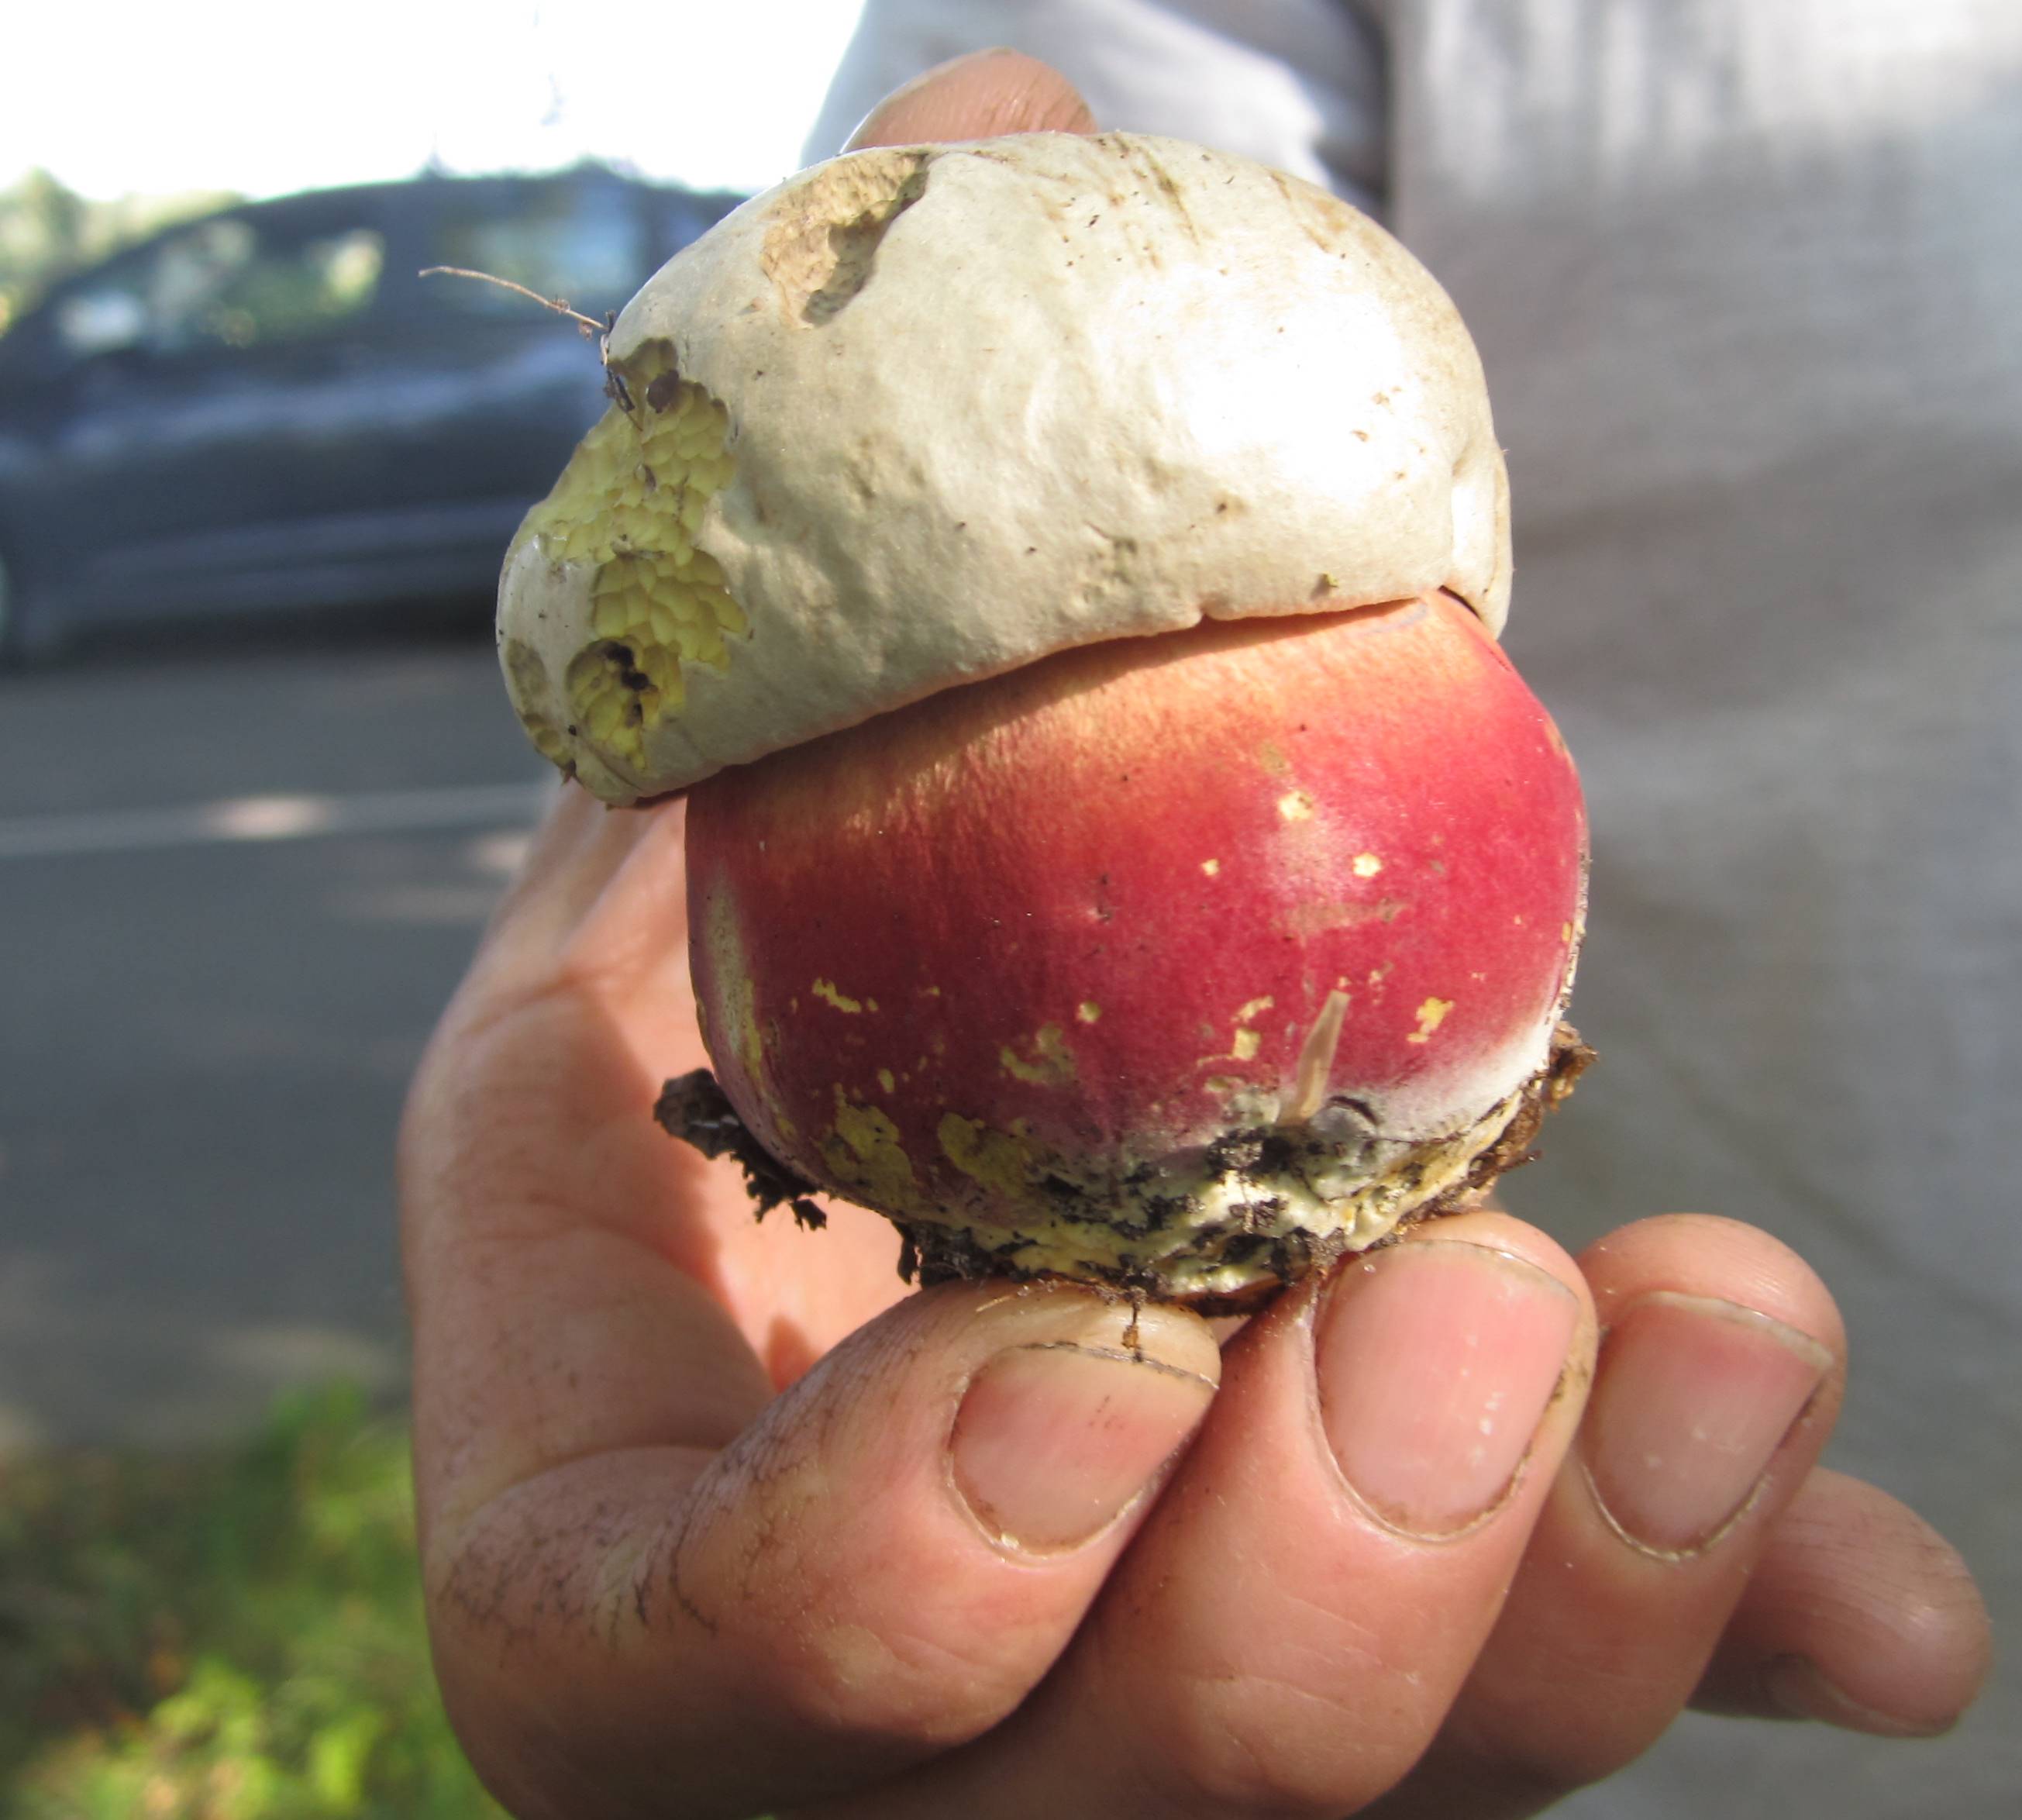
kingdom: Fungi
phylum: Basidiomycota
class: Agaricomycetes
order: Boletales
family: Boletaceae
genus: Rubroboletus
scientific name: Rubroboletus satanas
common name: Satans rørhat
